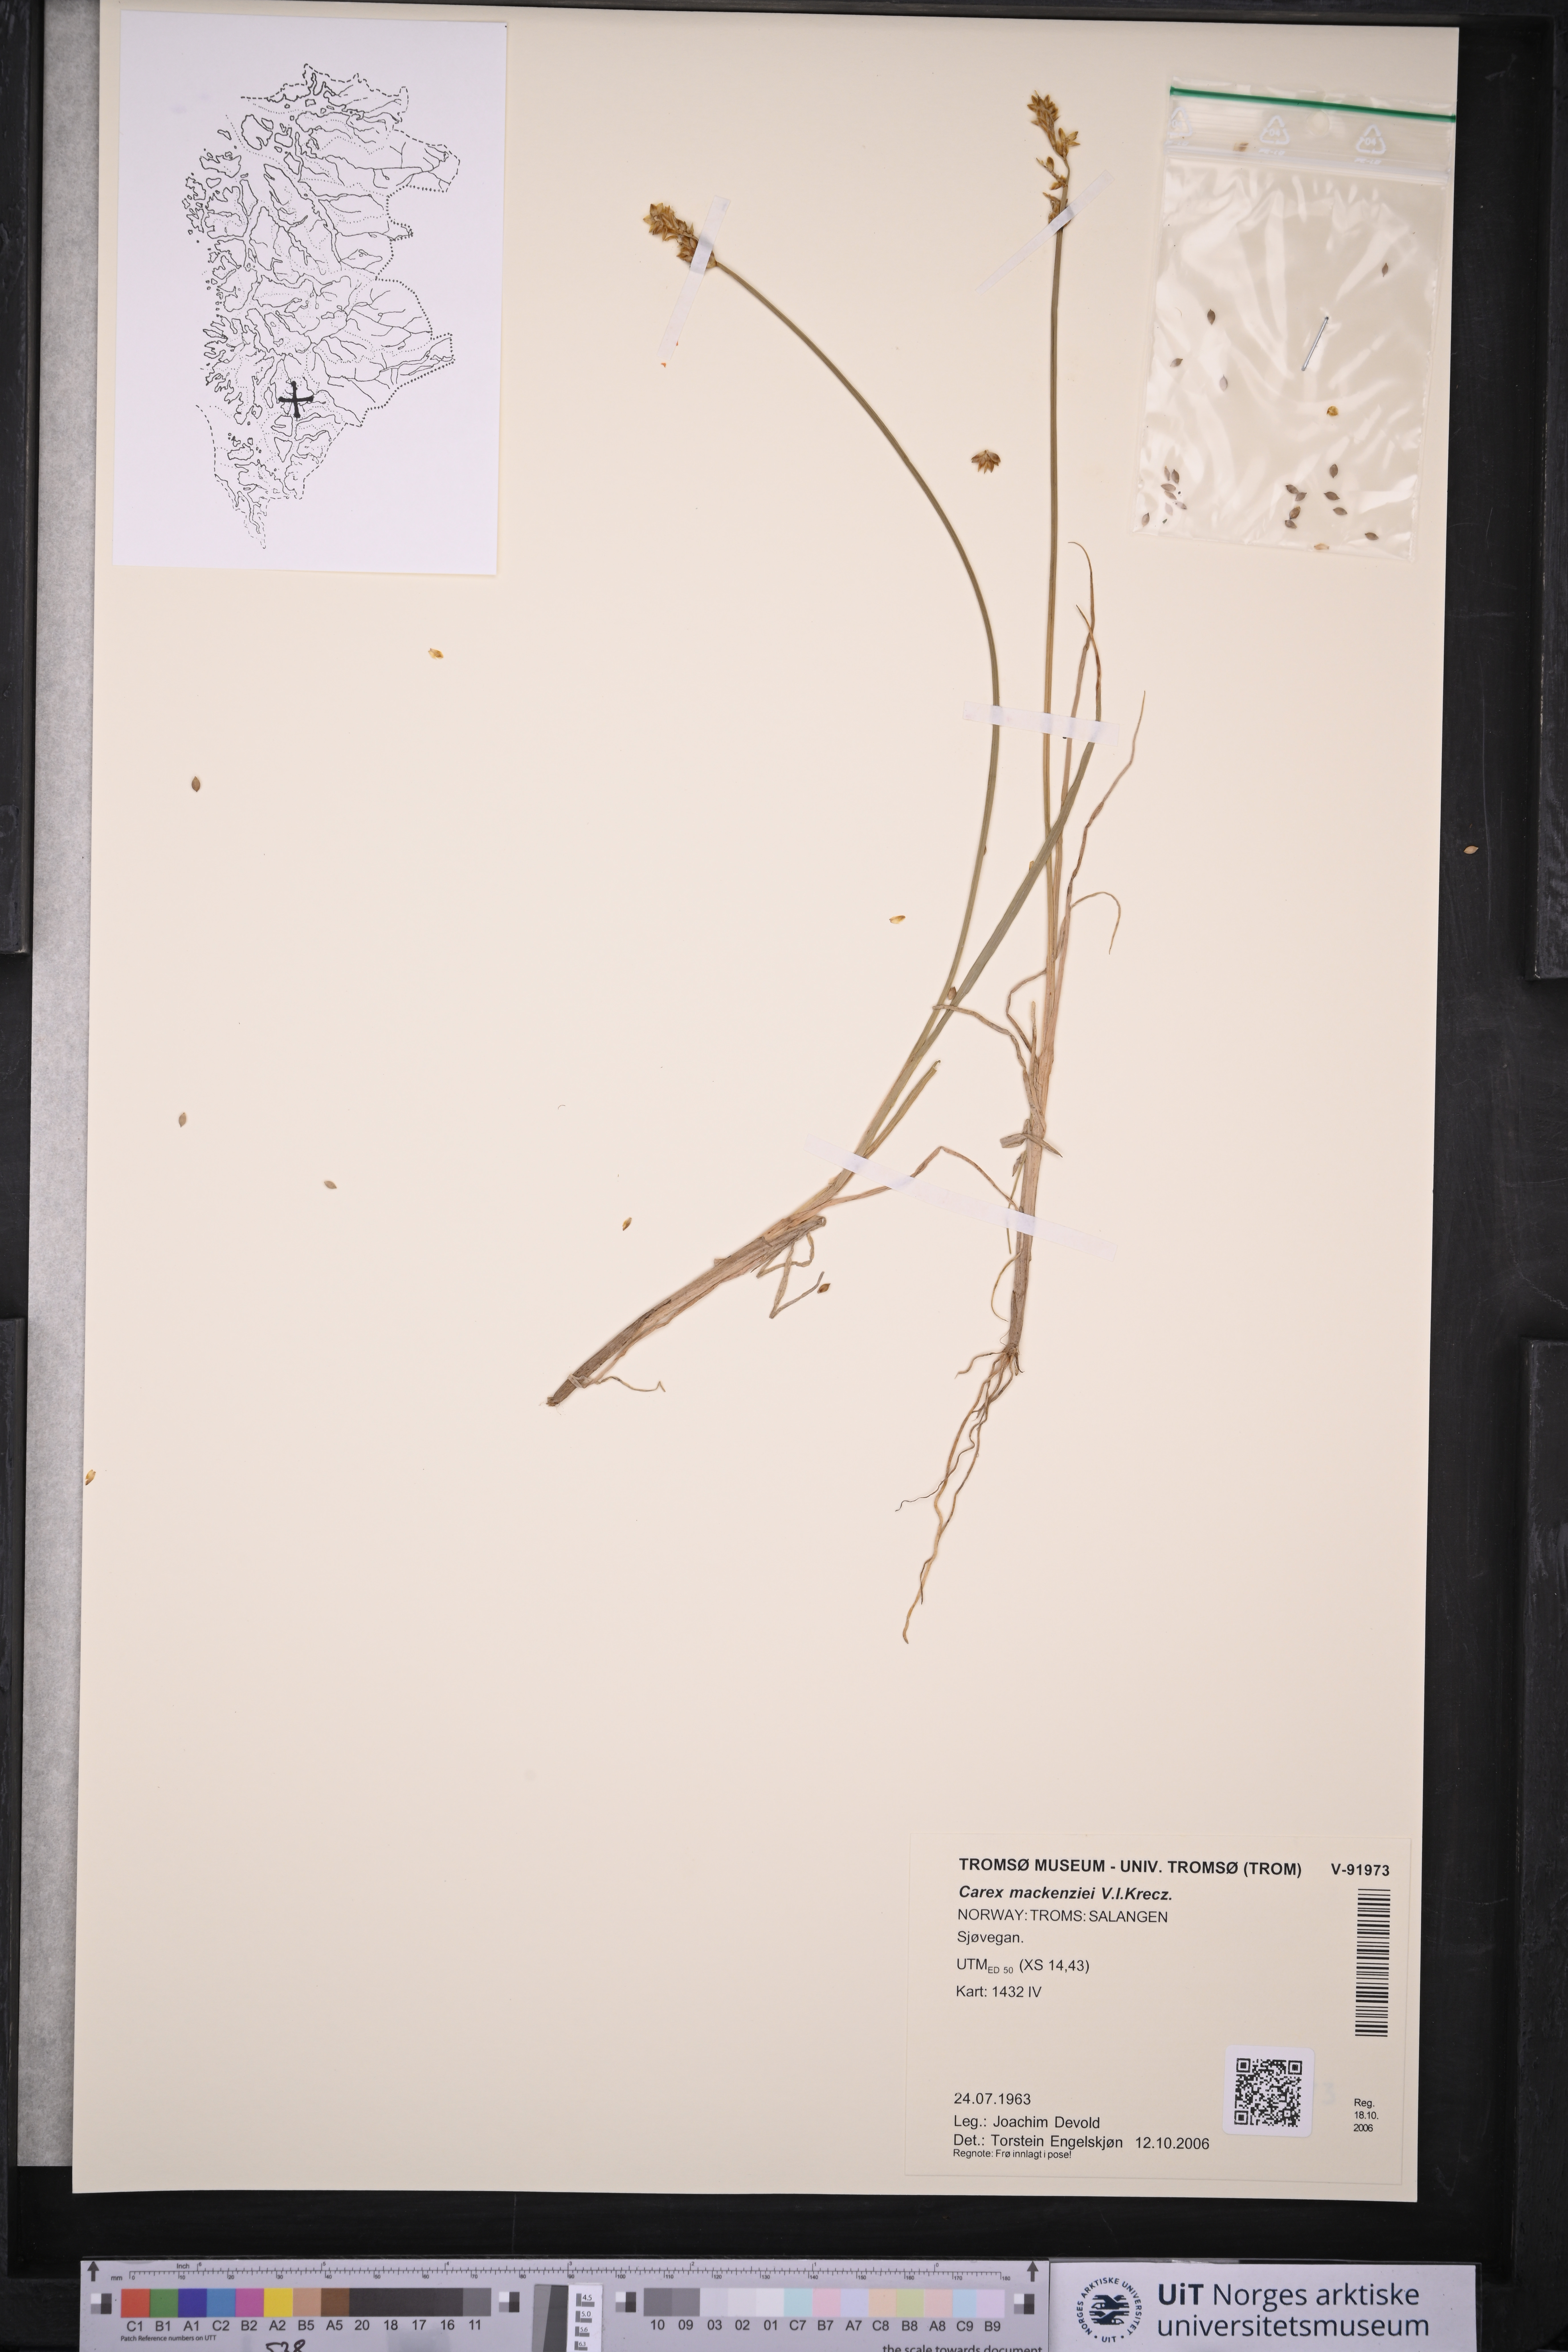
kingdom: Plantae
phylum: Tracheophyta
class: Liliopsida
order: Poales
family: Cyperaceae
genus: Carex
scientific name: Carex mackenziei
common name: Mackenzie's sedge
